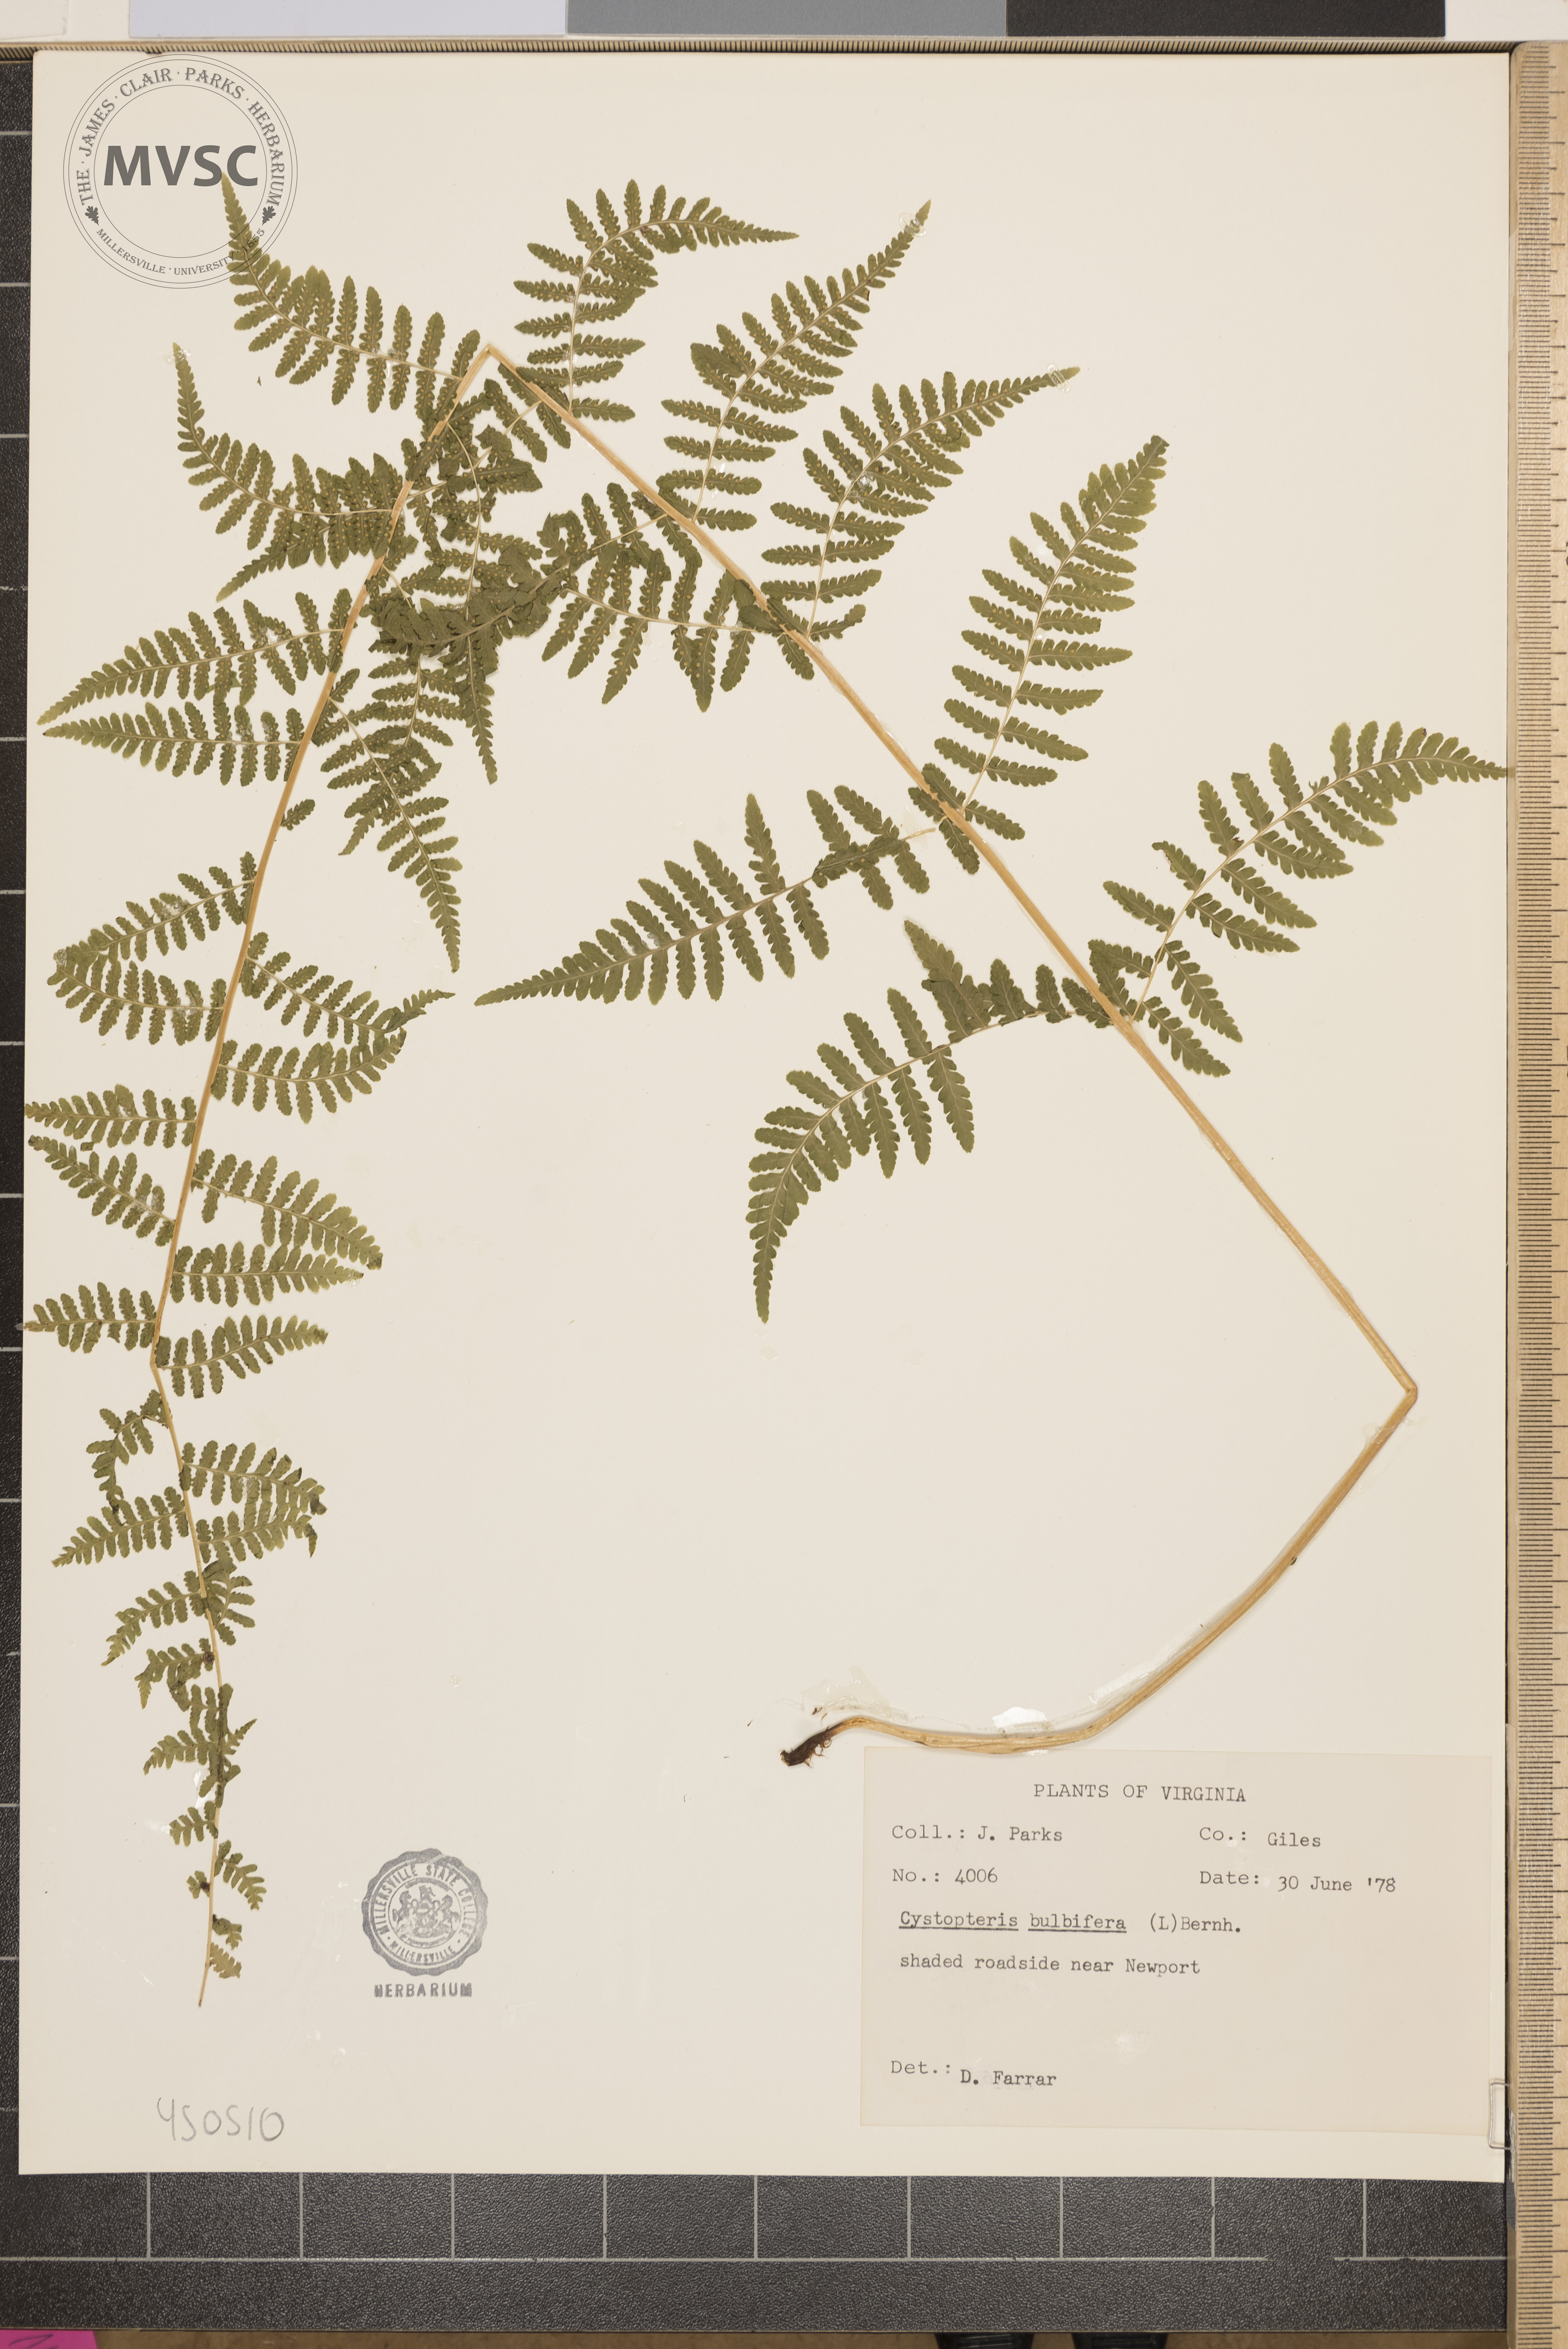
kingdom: Plantae
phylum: Tracheophyta
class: Polypodiopsida
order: Polypodiales
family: Cystopteridaceae
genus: Cystopteris
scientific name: Cystopteris bulbifera
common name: Bulblet bladder fern
